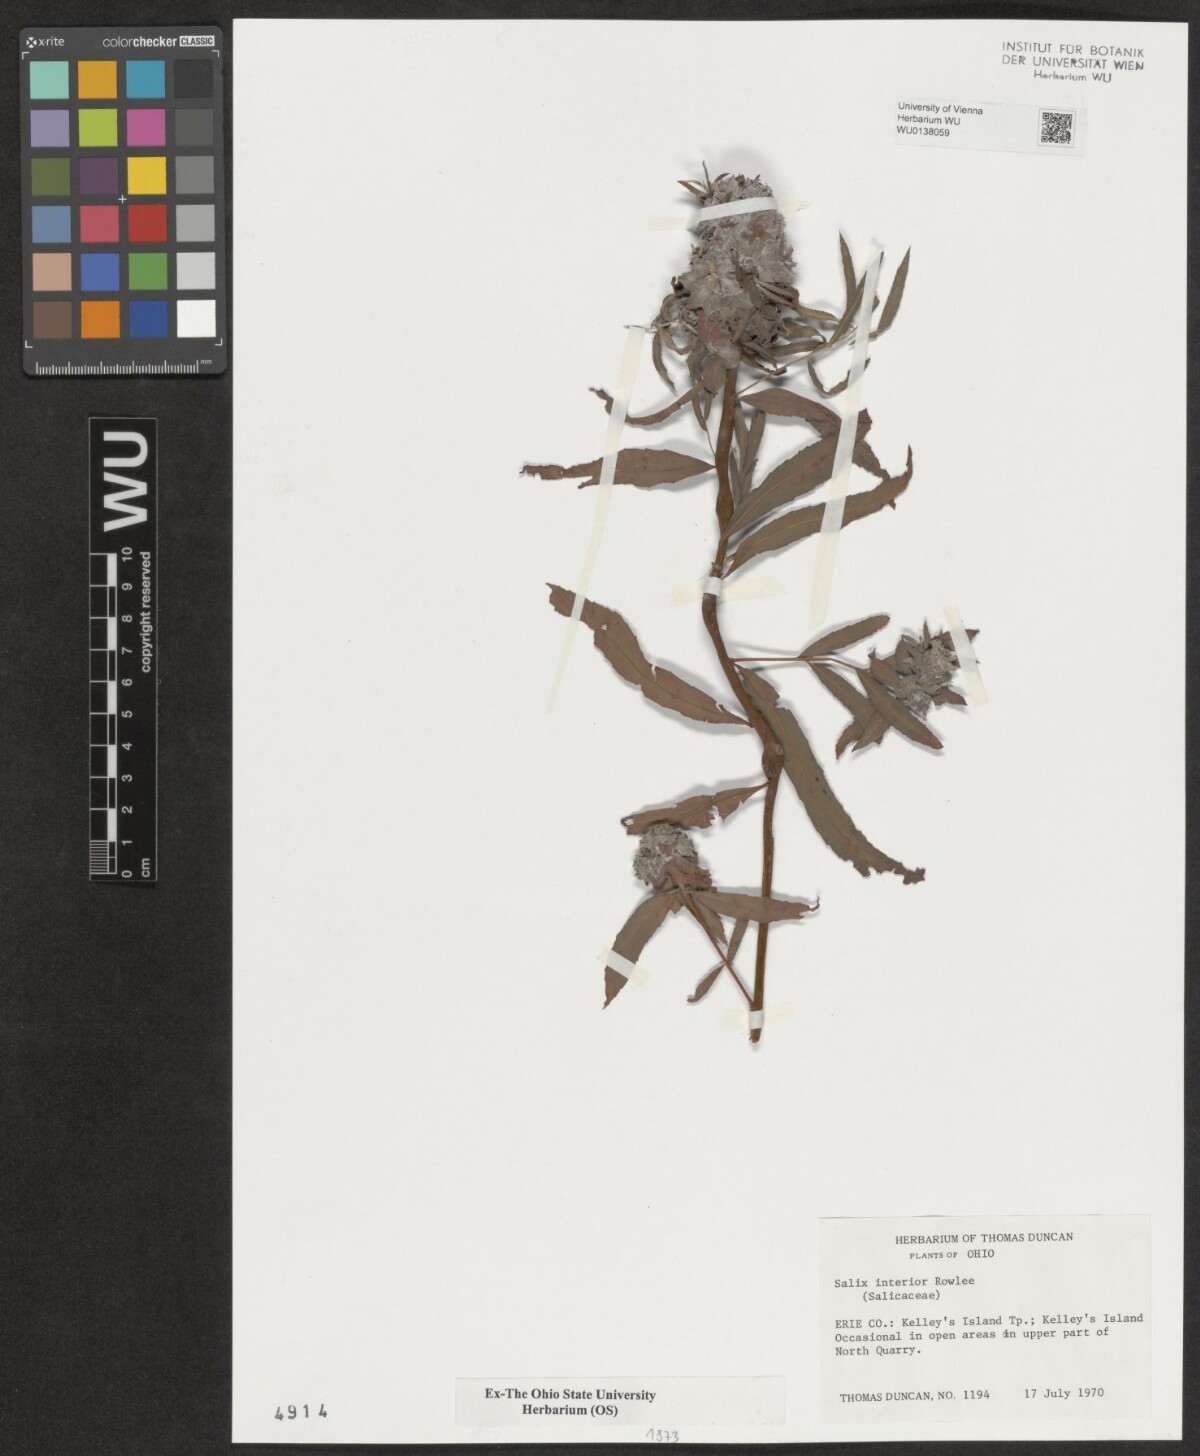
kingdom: Plantae
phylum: Tracheophyta
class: Magnoliopsida
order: Malpighiales
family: Salicaceae
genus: Salix
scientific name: Salix interior
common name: Sandbar willow
